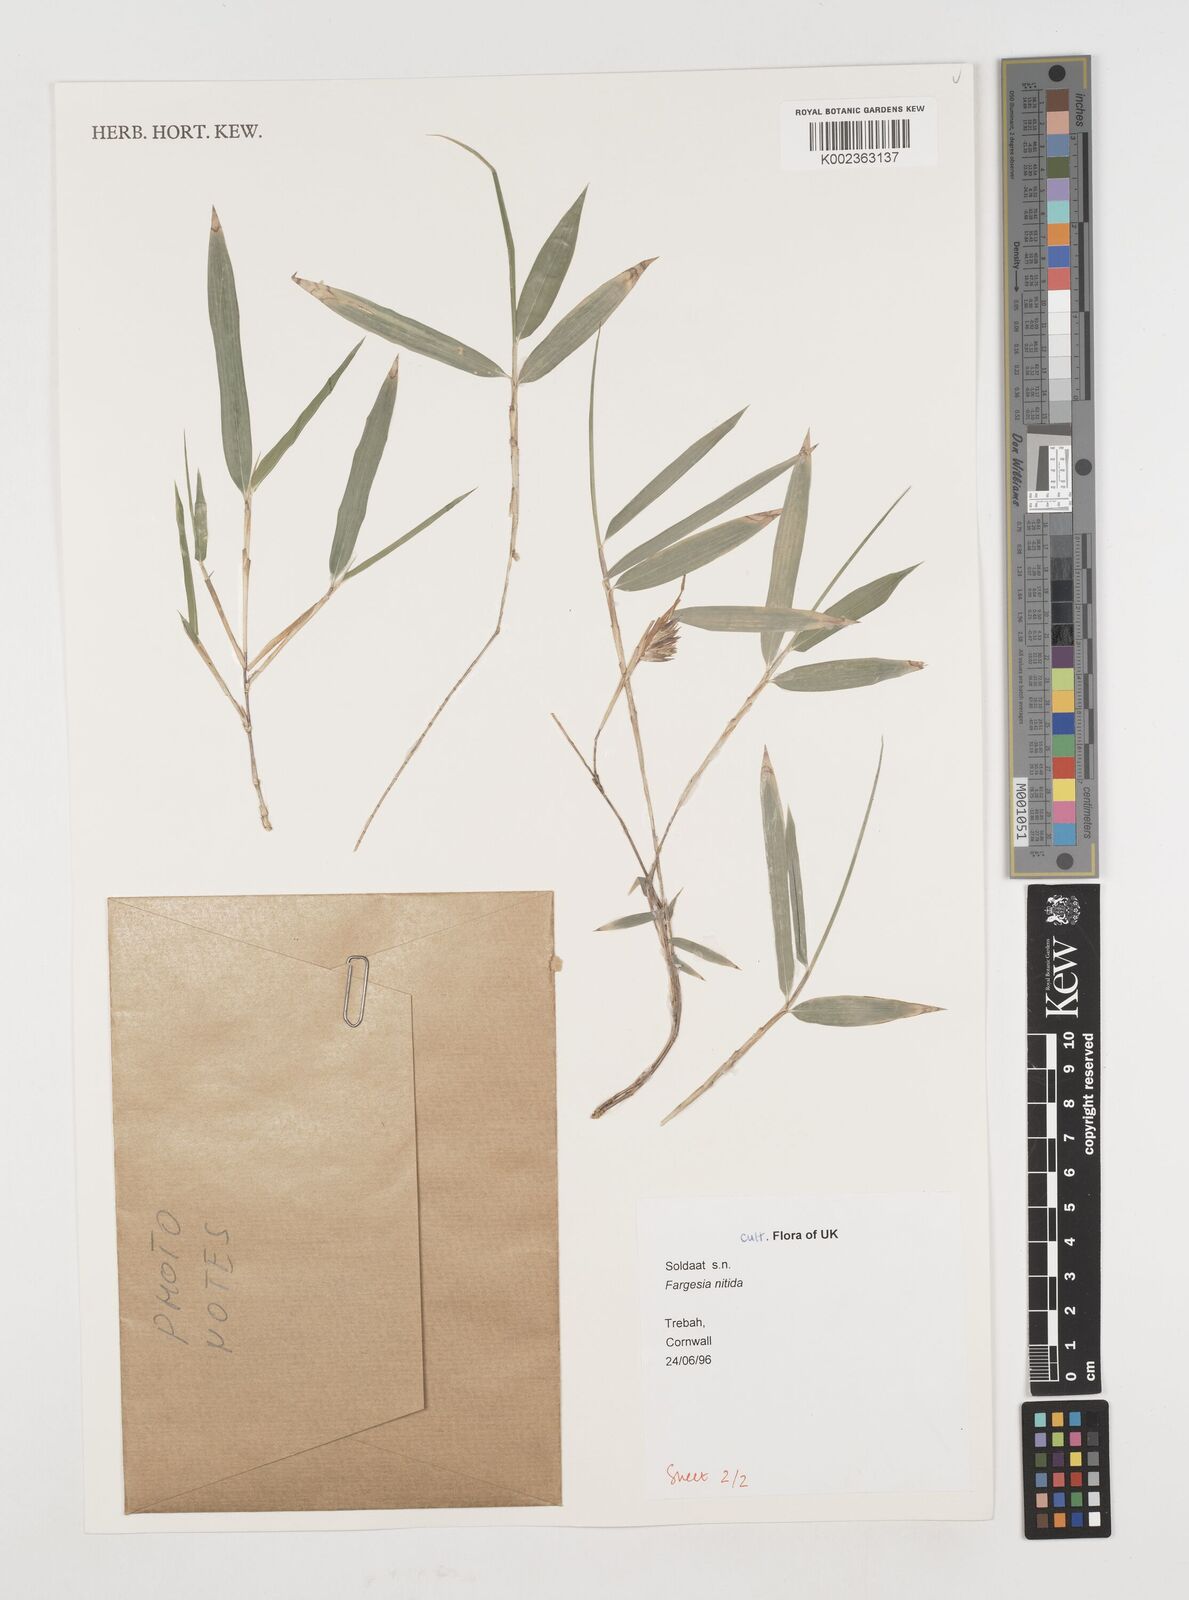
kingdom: Plantae
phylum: Tracheophyta
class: Liliopsida
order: Poales
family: Poaceae
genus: Fargesia
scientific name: Fargesia nitida ex
